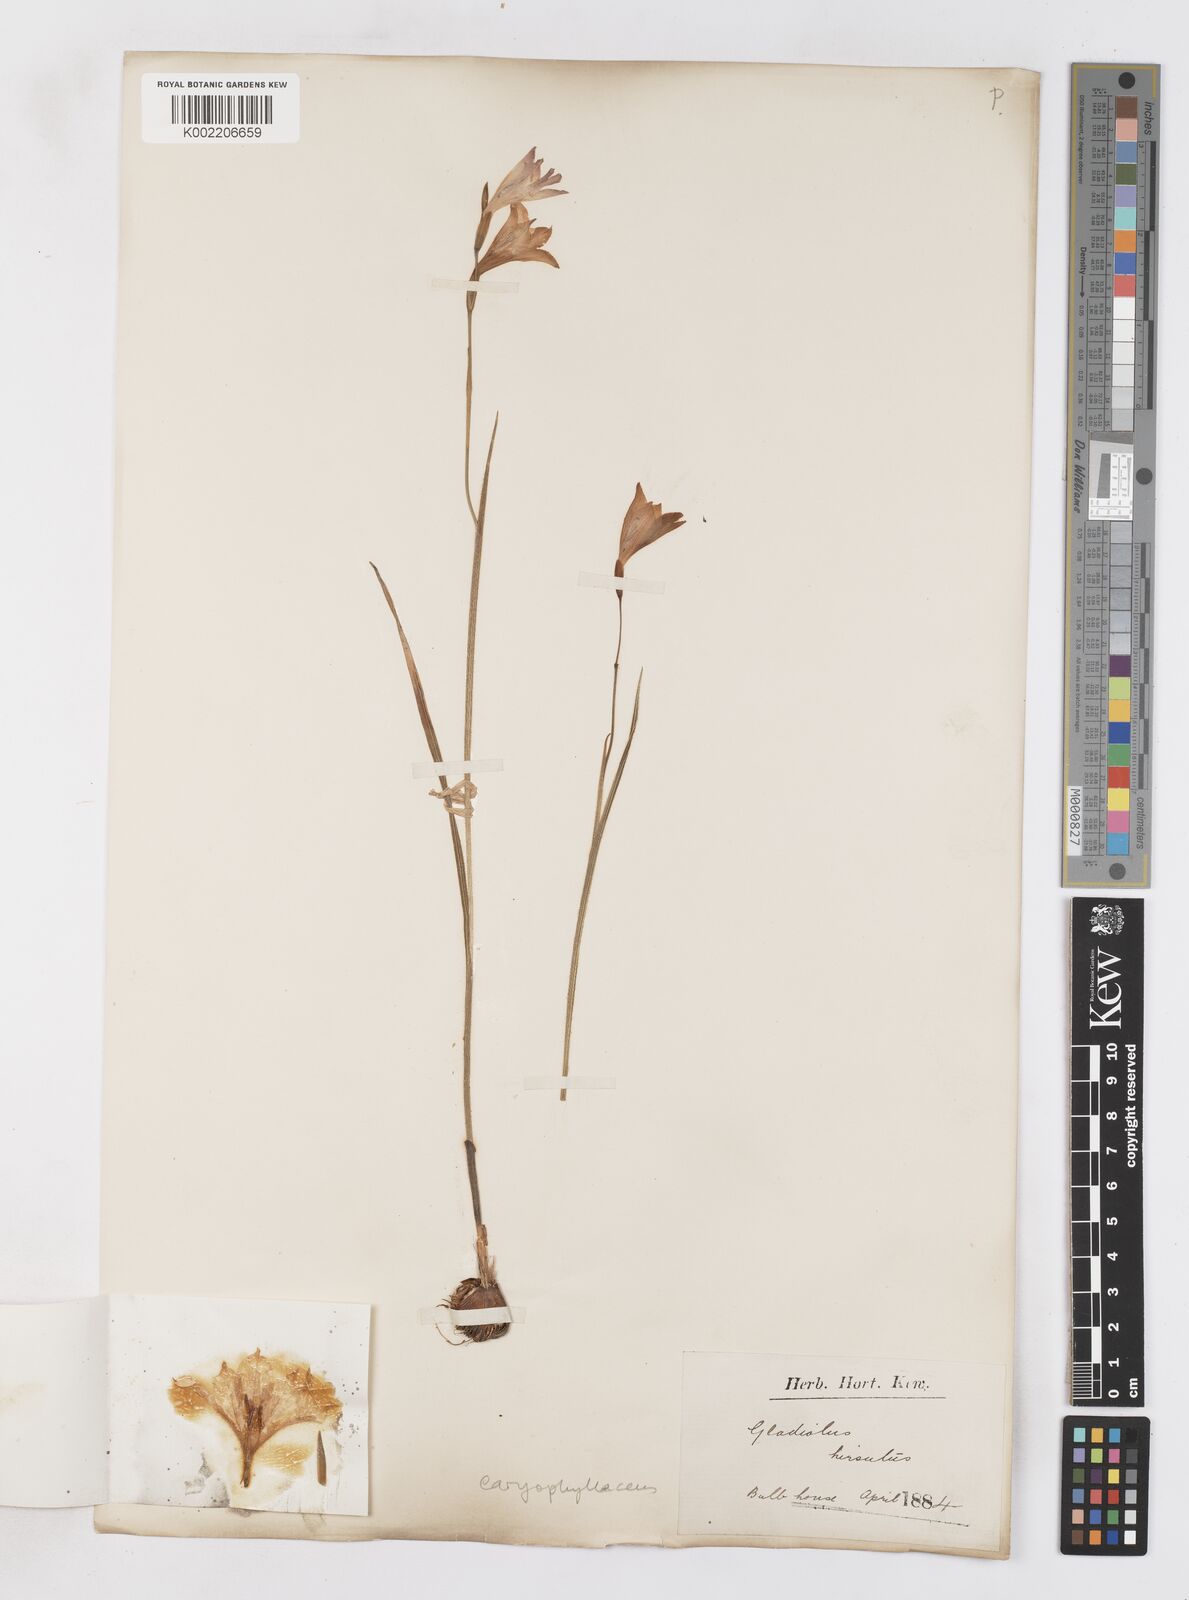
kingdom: Plantae
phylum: Tracheophyta
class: Liliopsida
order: Asparagales
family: Iridaceae
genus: Gladiolus
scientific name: Gladiolus caryophyllaceus
